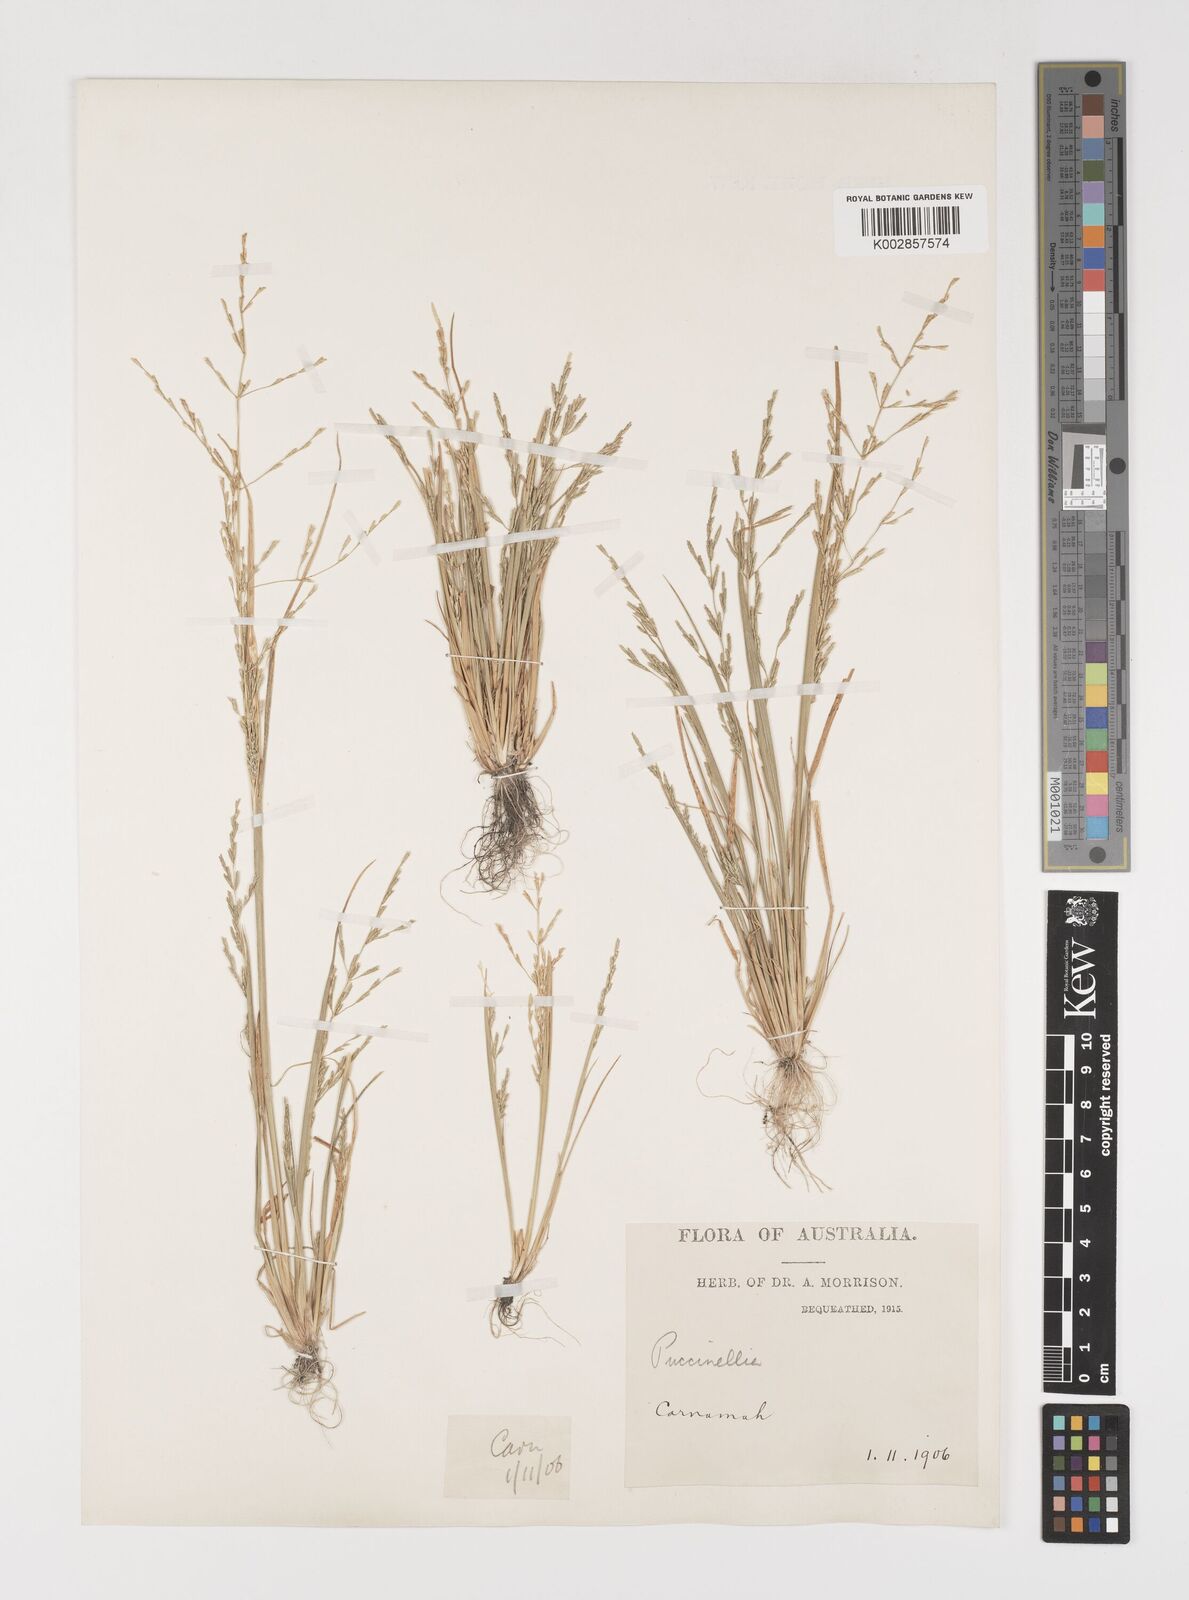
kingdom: Plantae
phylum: Tracheophyta
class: Liliopsida
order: Poales
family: Poaceae
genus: Puccinellia
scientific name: Puccinellia stricta
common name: Australian saltmarsh grass
